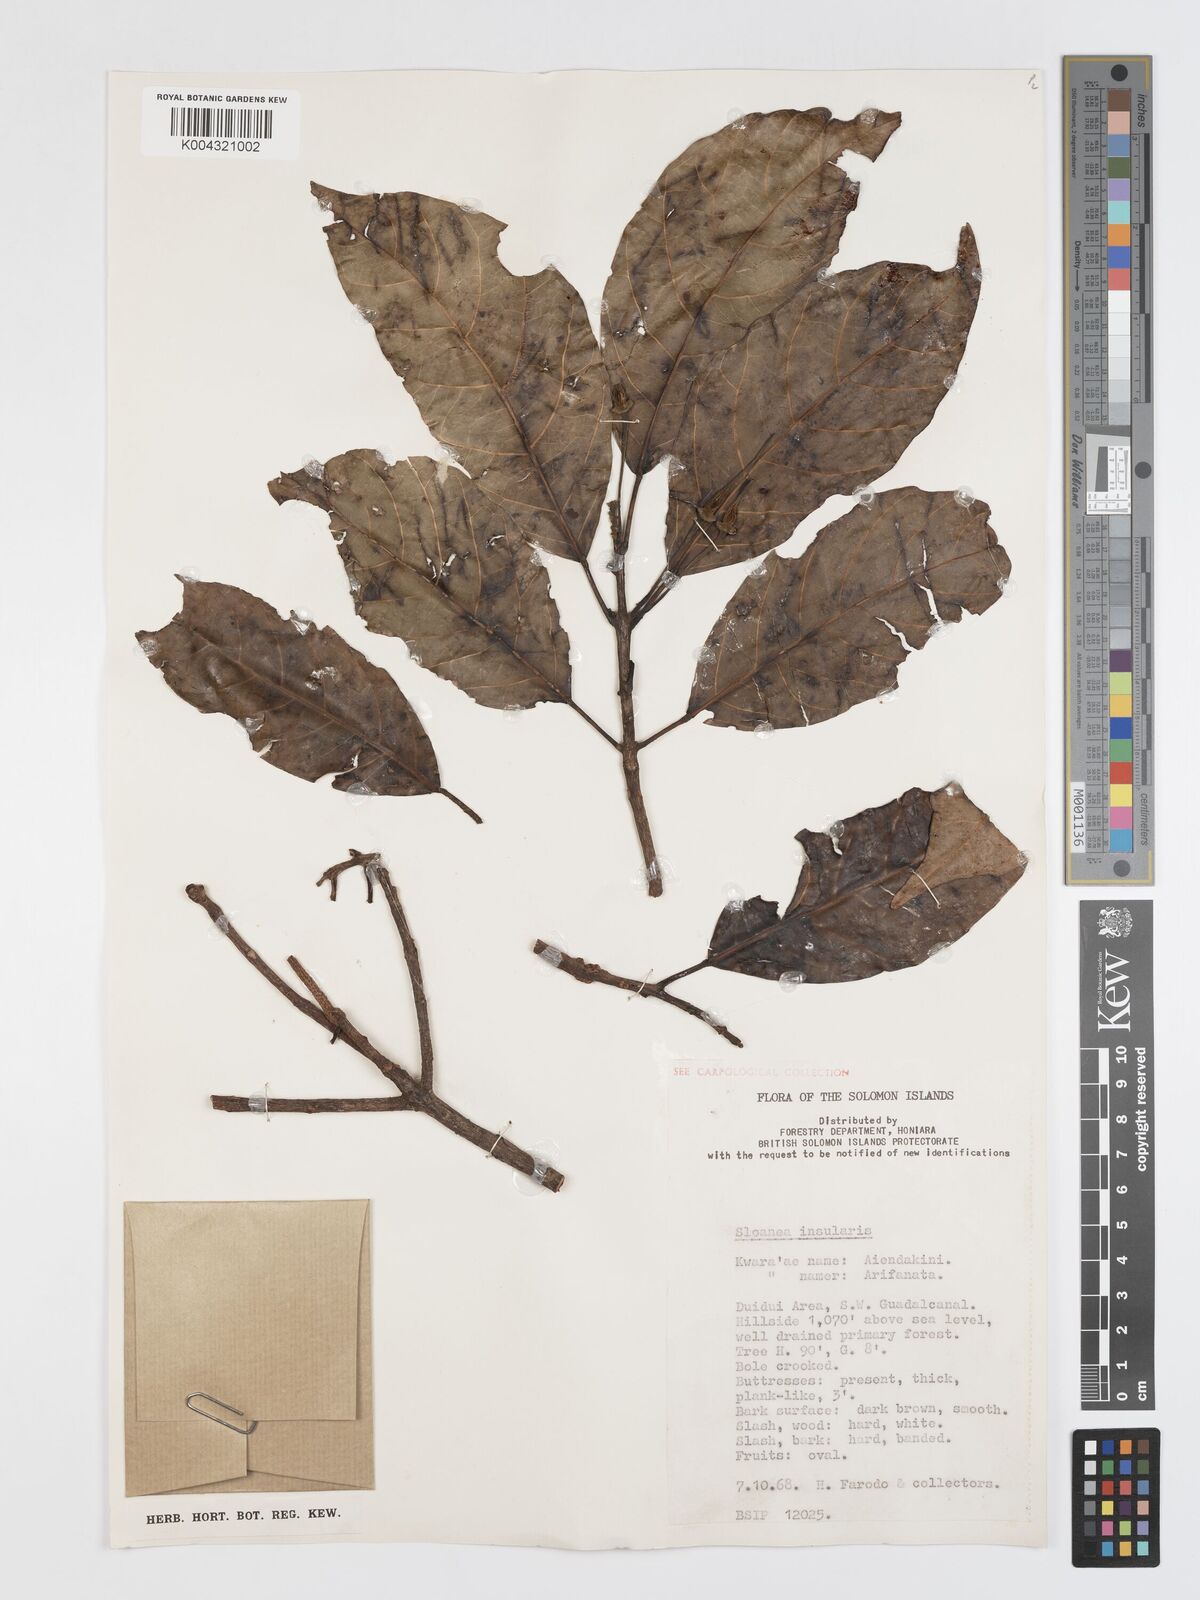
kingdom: Plantae
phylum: Tracheophyta
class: Magnoliopsida
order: Oxalidales
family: Elaeocarpaceae
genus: Sloanea
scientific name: Sloanea insularis
